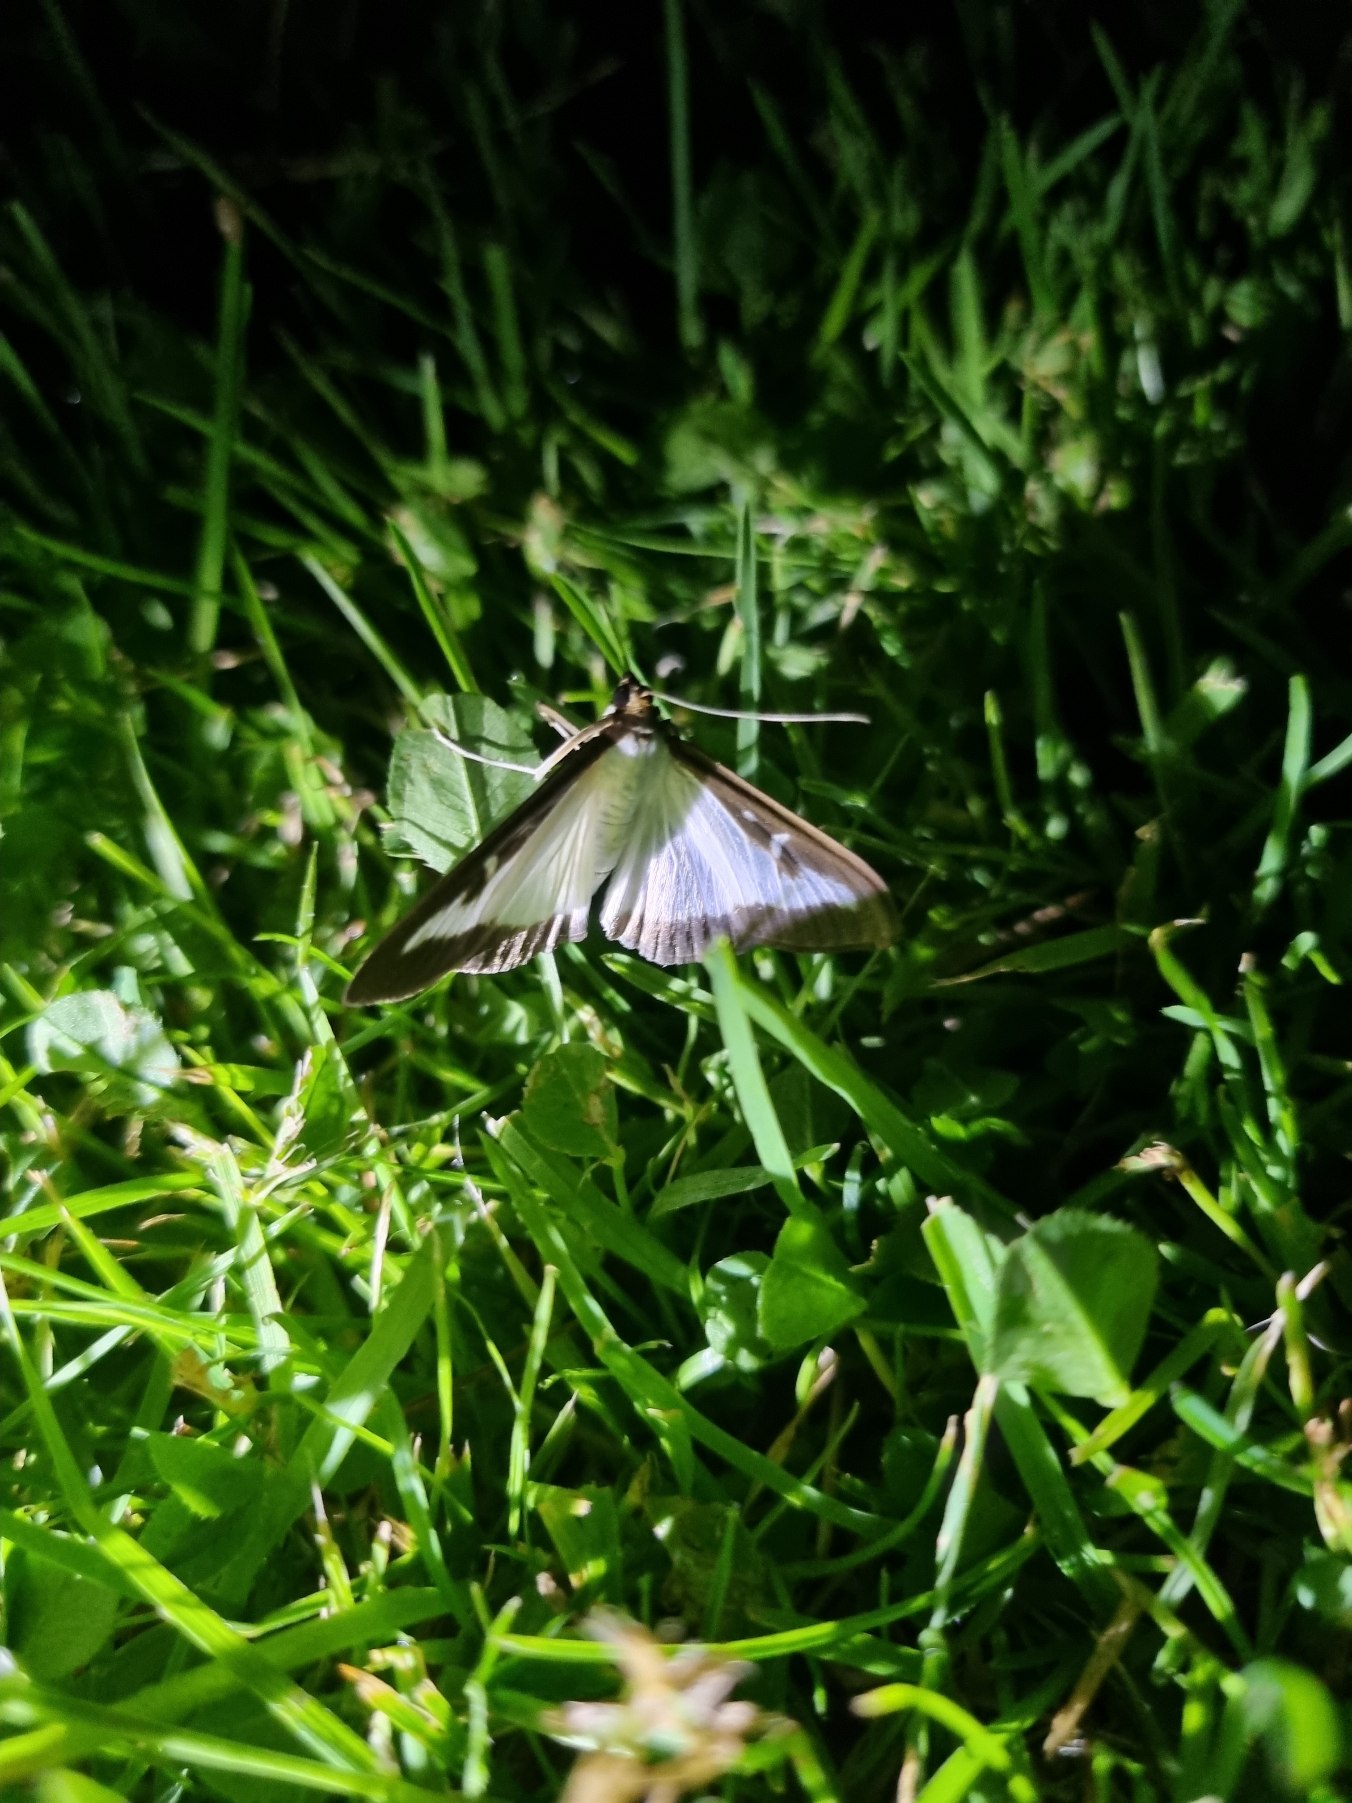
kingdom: Animalia
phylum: Arthropoda
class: Insecta
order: Lepidoptera
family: Crambidae
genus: Cydalima
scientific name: Cydalima perspectalis
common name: Buksbomhalvmøl
